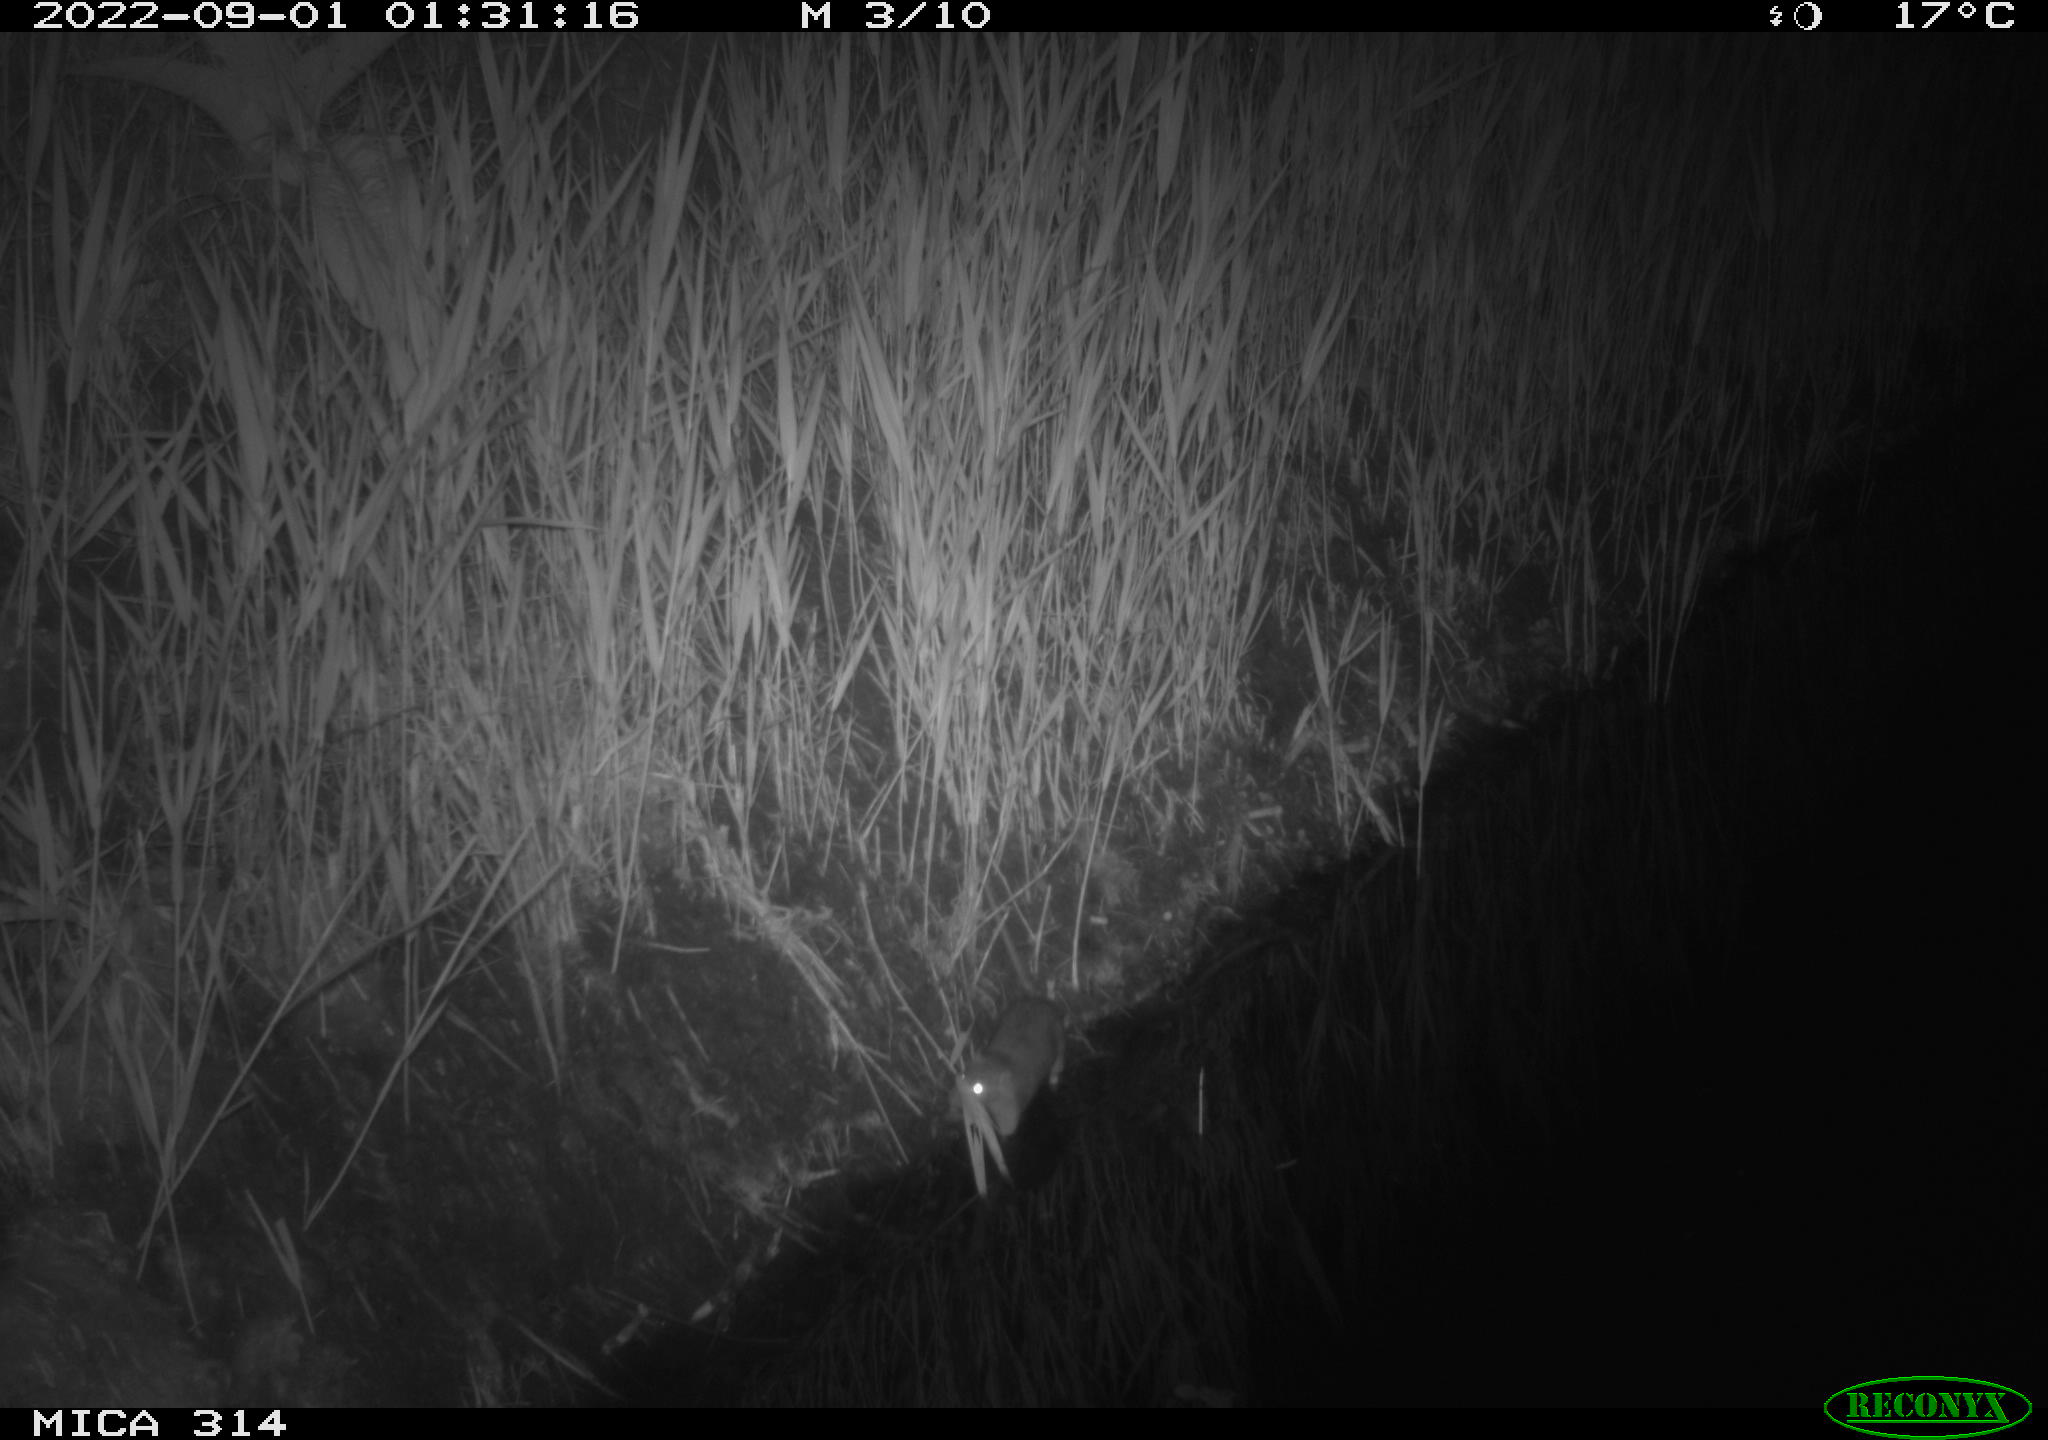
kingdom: Animalia
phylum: Chordata
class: Mammalia
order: Rodentia
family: Muridae
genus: Rattus
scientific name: Rattus norvegicus
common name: Brown rat
